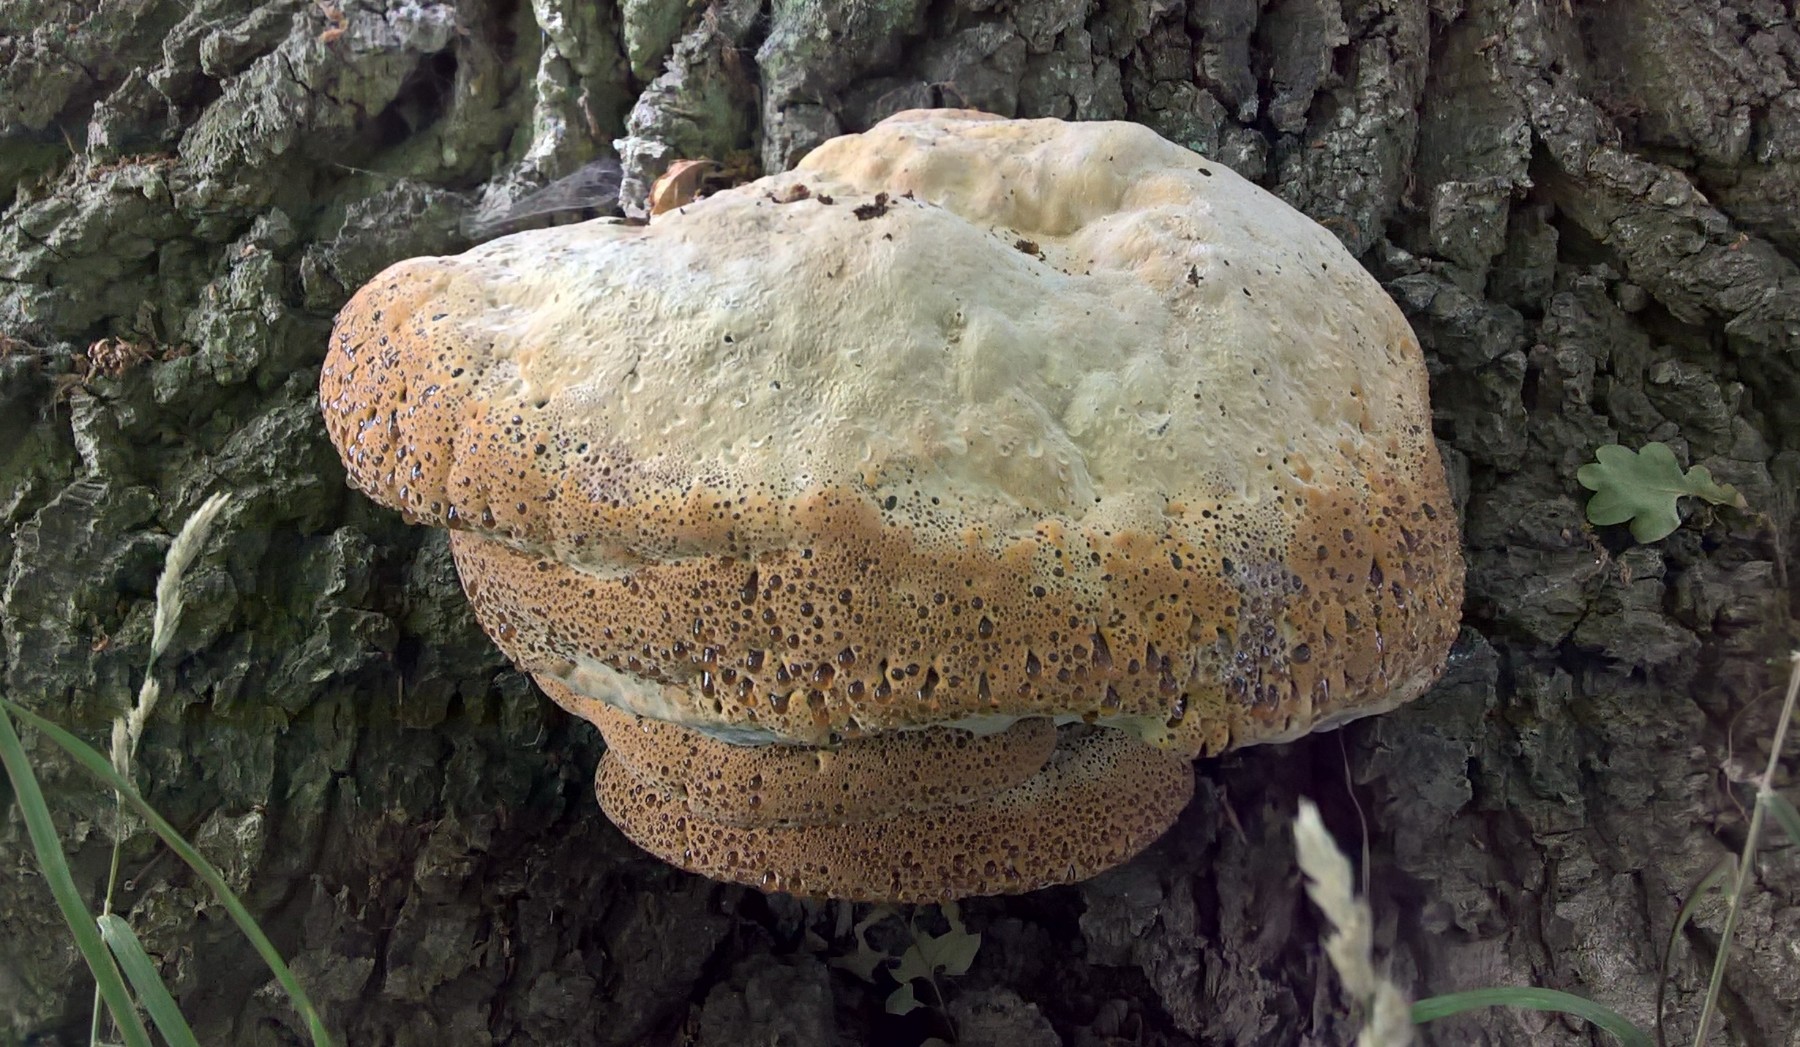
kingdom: Fungi
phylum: Basidiomycota
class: Agaricomycetes
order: Hymenochaetales
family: Hymenochaetaceae
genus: Pseudoinonotus
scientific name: Pseudoinonotus dryadeus
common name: ege-spejlporesvamp
